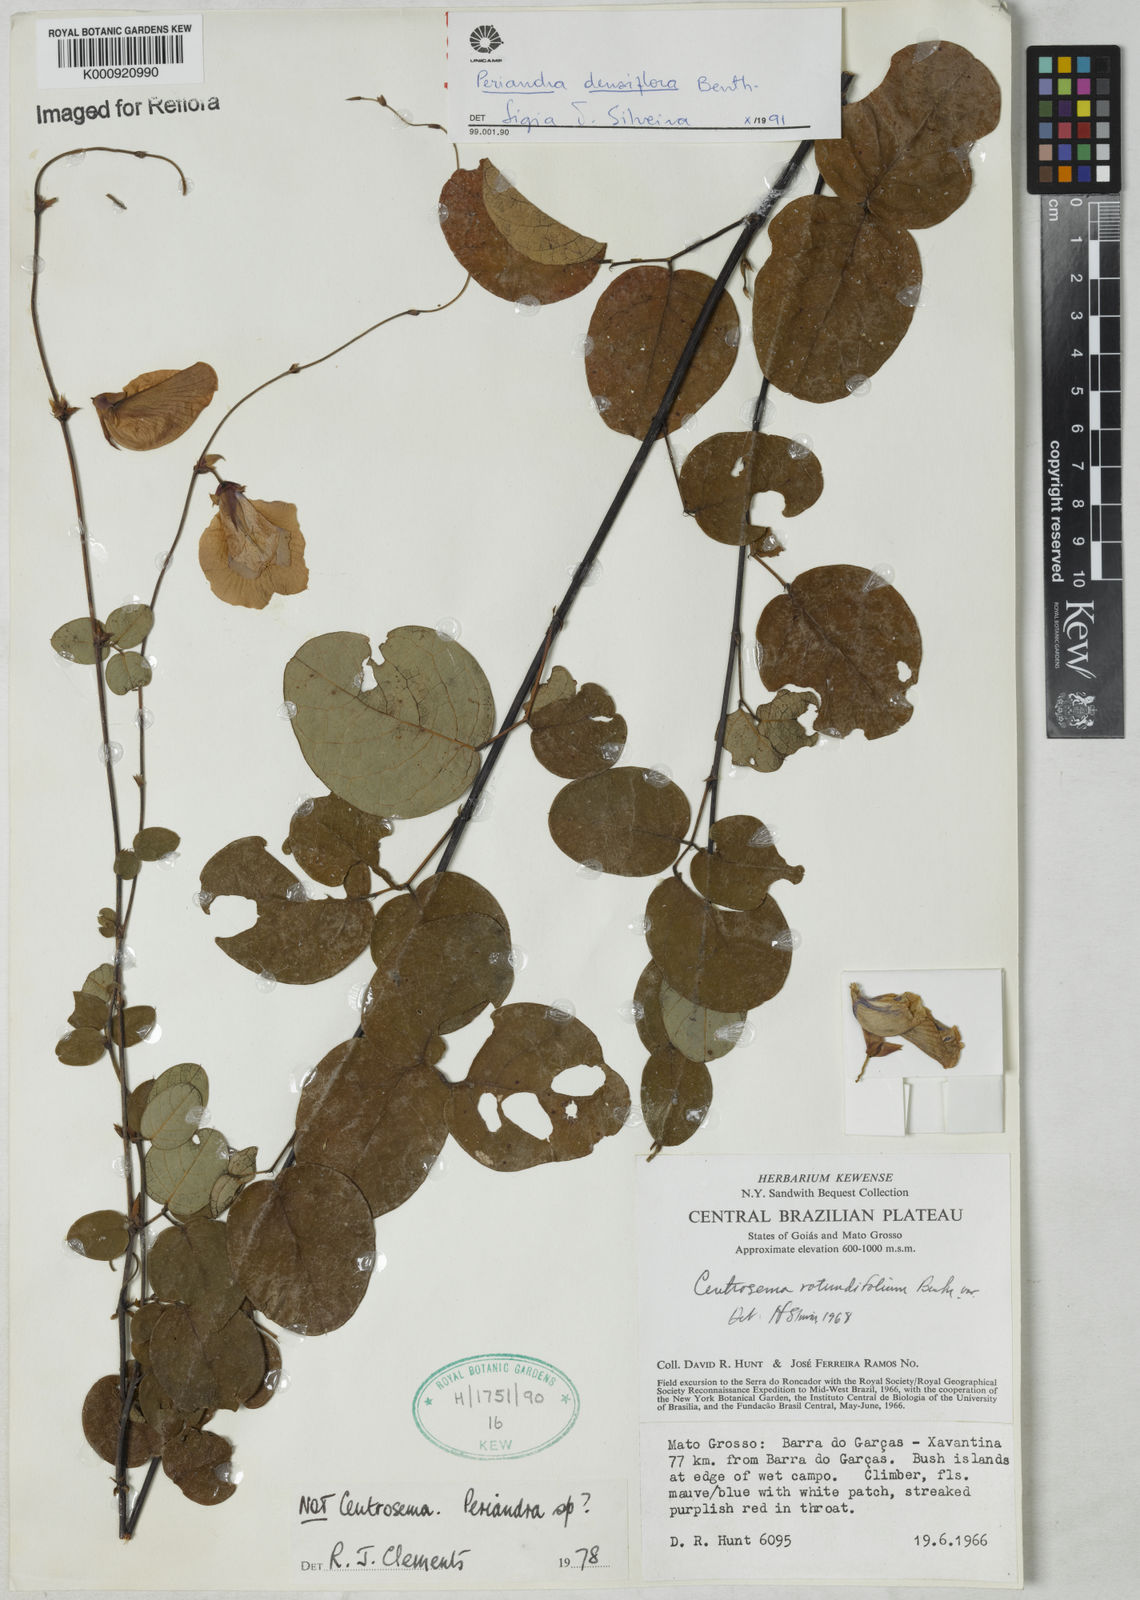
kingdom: Plantae
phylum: Tracheophyta
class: Magnoliopsida
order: Fabales
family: Fabaceae
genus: Periandra
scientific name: Periandra densiflora
